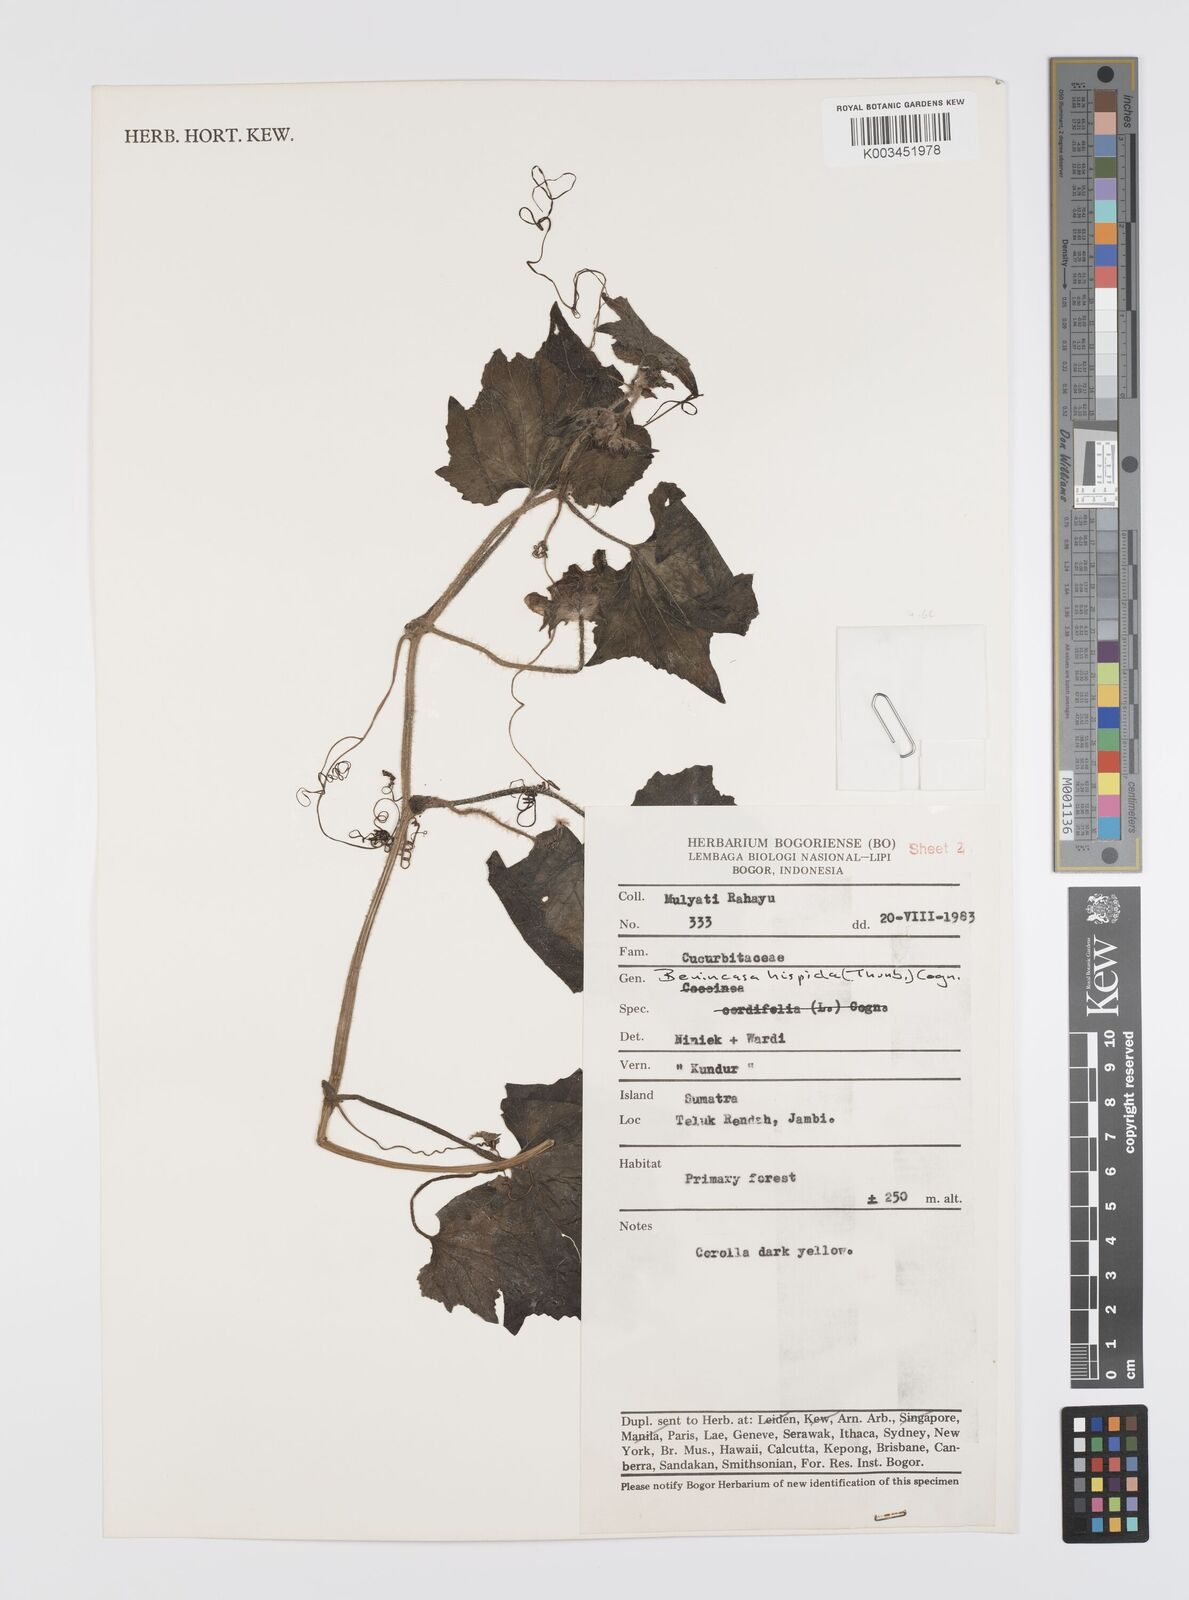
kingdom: Plantae
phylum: Tracheophyta
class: Magnoliopsida
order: Cucurbitales
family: Cucurbitaceae
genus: Benincasa
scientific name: Benincasa hispida
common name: Chinese-watermelon
